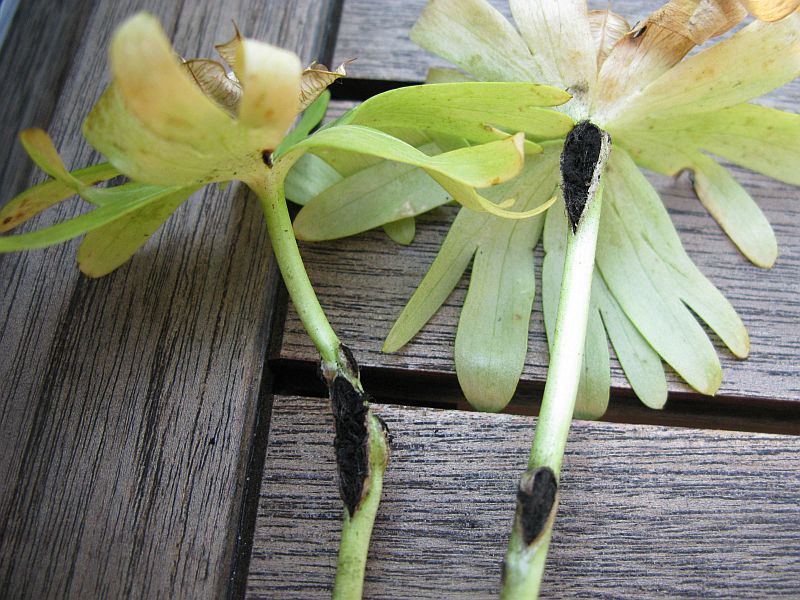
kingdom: Fungi
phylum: Basidiomycota
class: Ustilaginomycetes
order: Urocystidales
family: Urocystidaceae
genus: Urocystis
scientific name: Urocystis eranthidis
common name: erantis-brand
